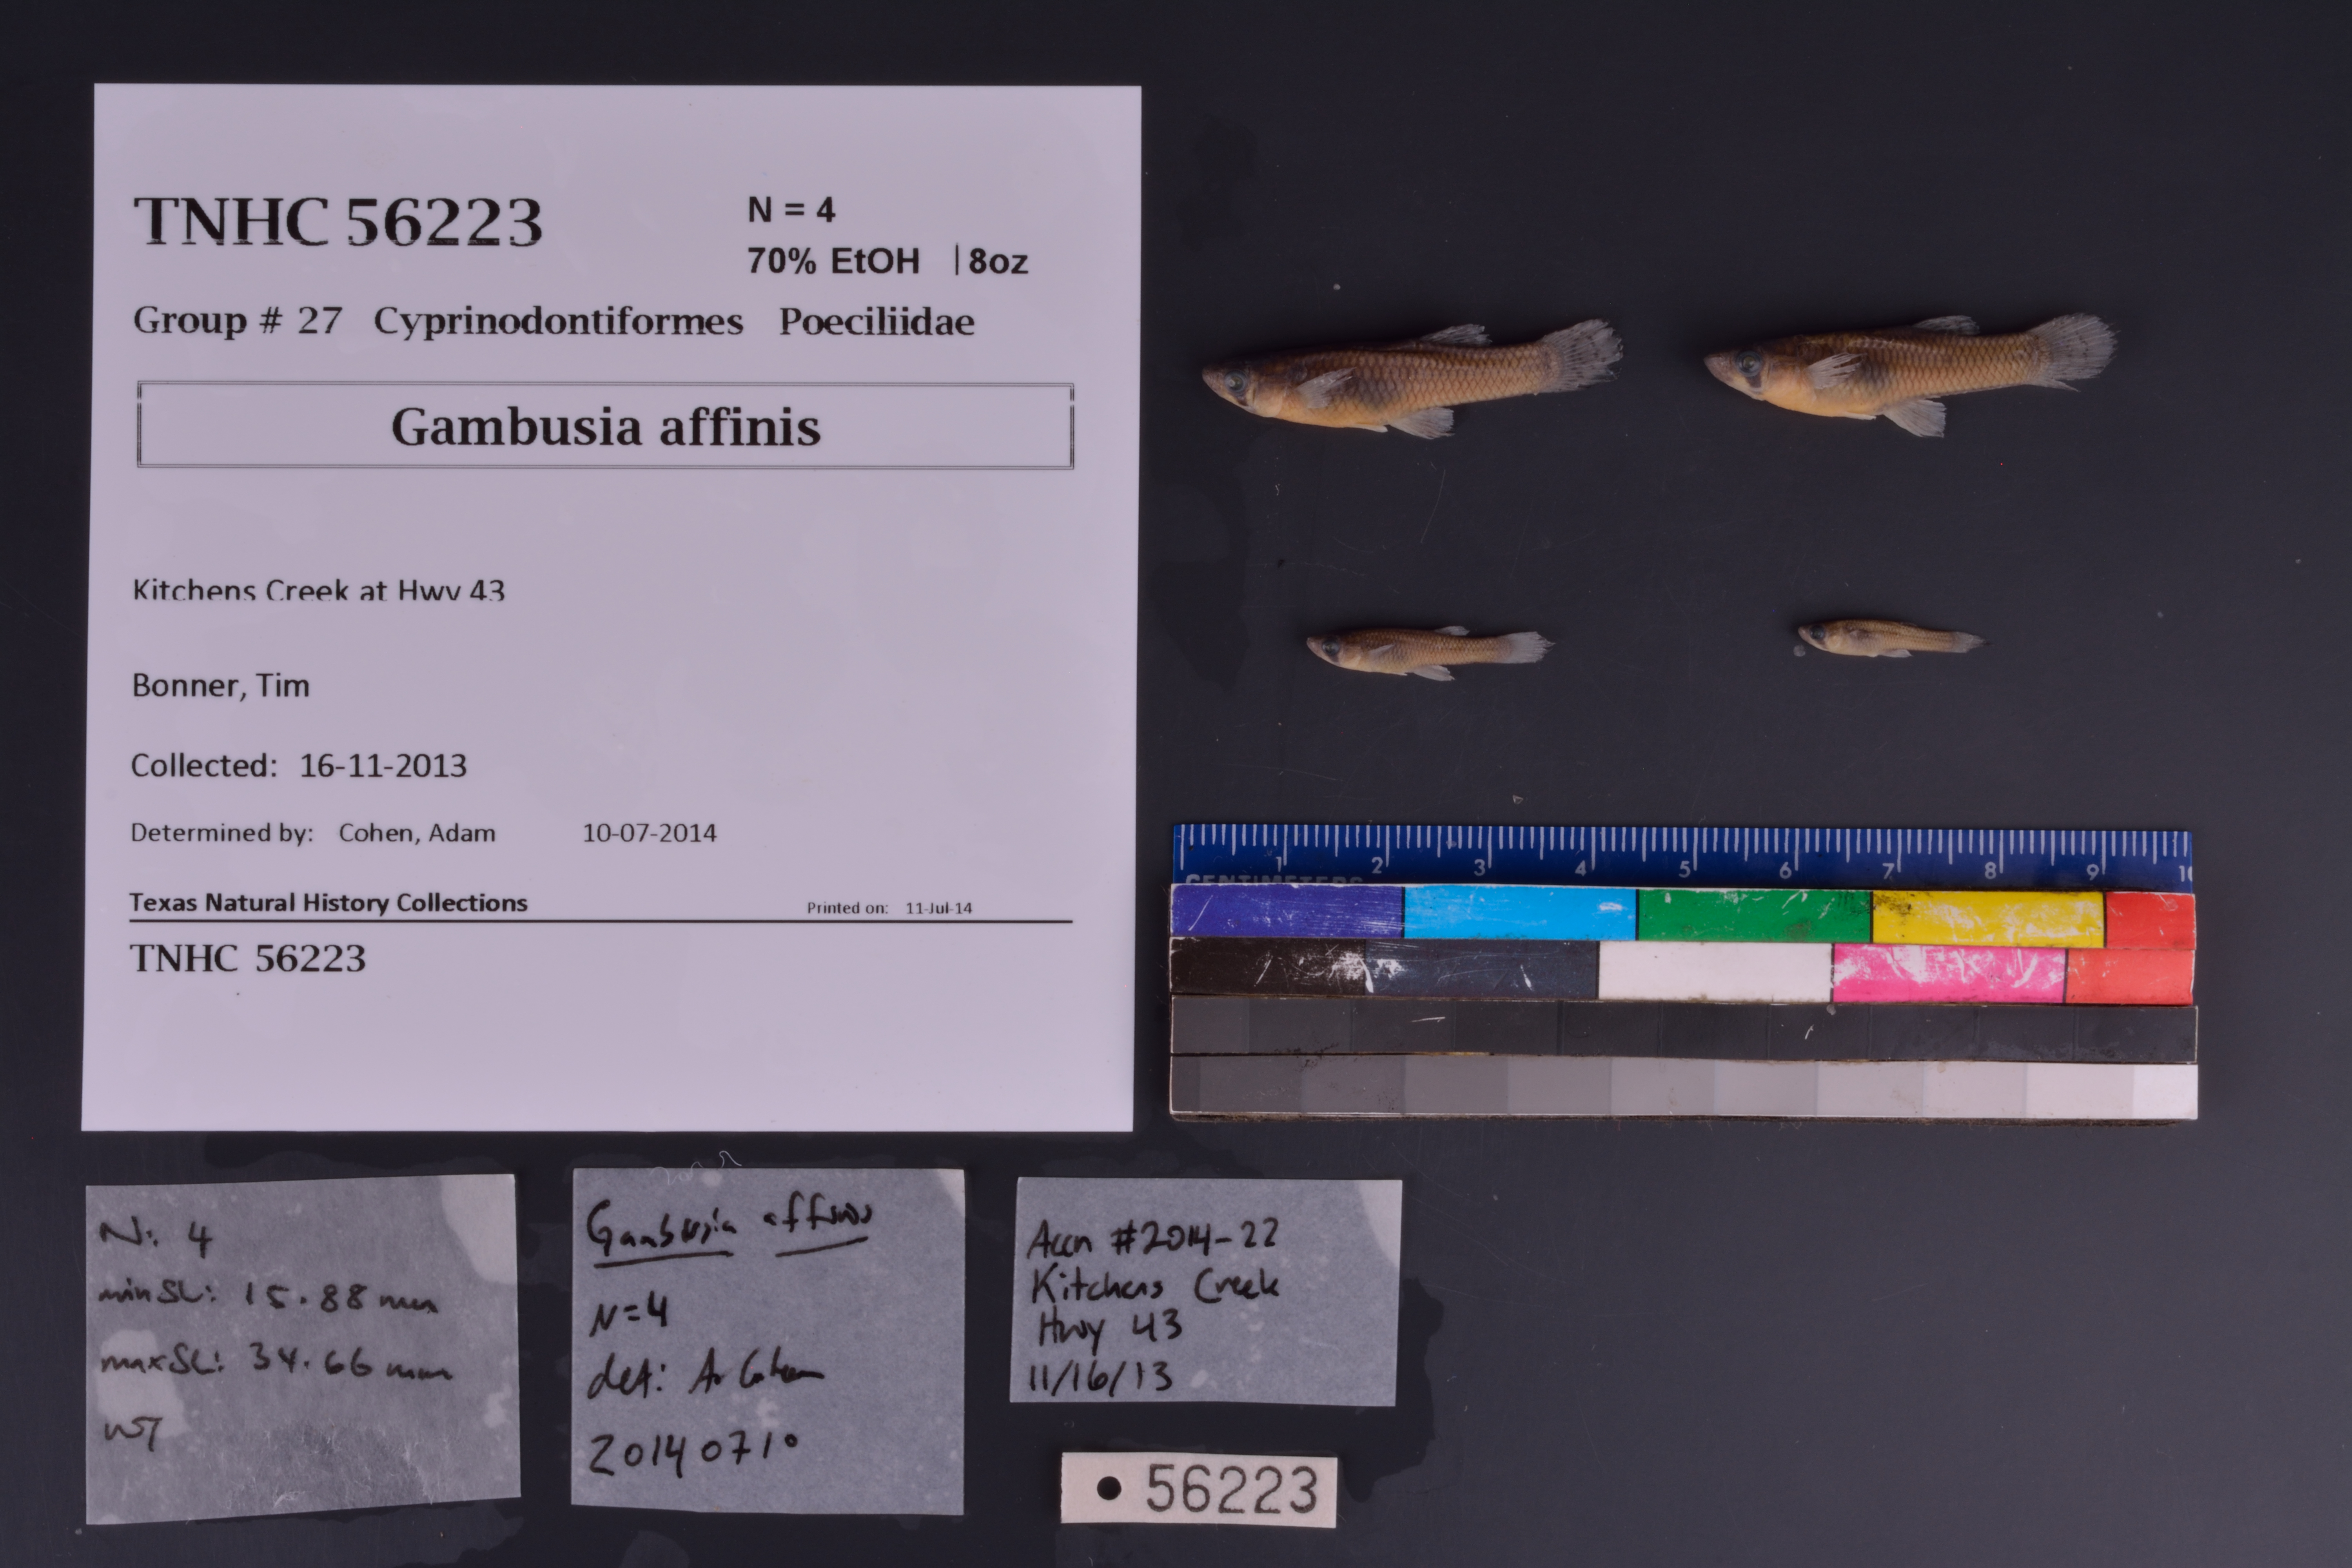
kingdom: Animalia
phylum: Chordata
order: Cyprinodontiformes
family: Poeciliidae
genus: Gambusia
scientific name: Gambusia affinis
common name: Mosquitofish
